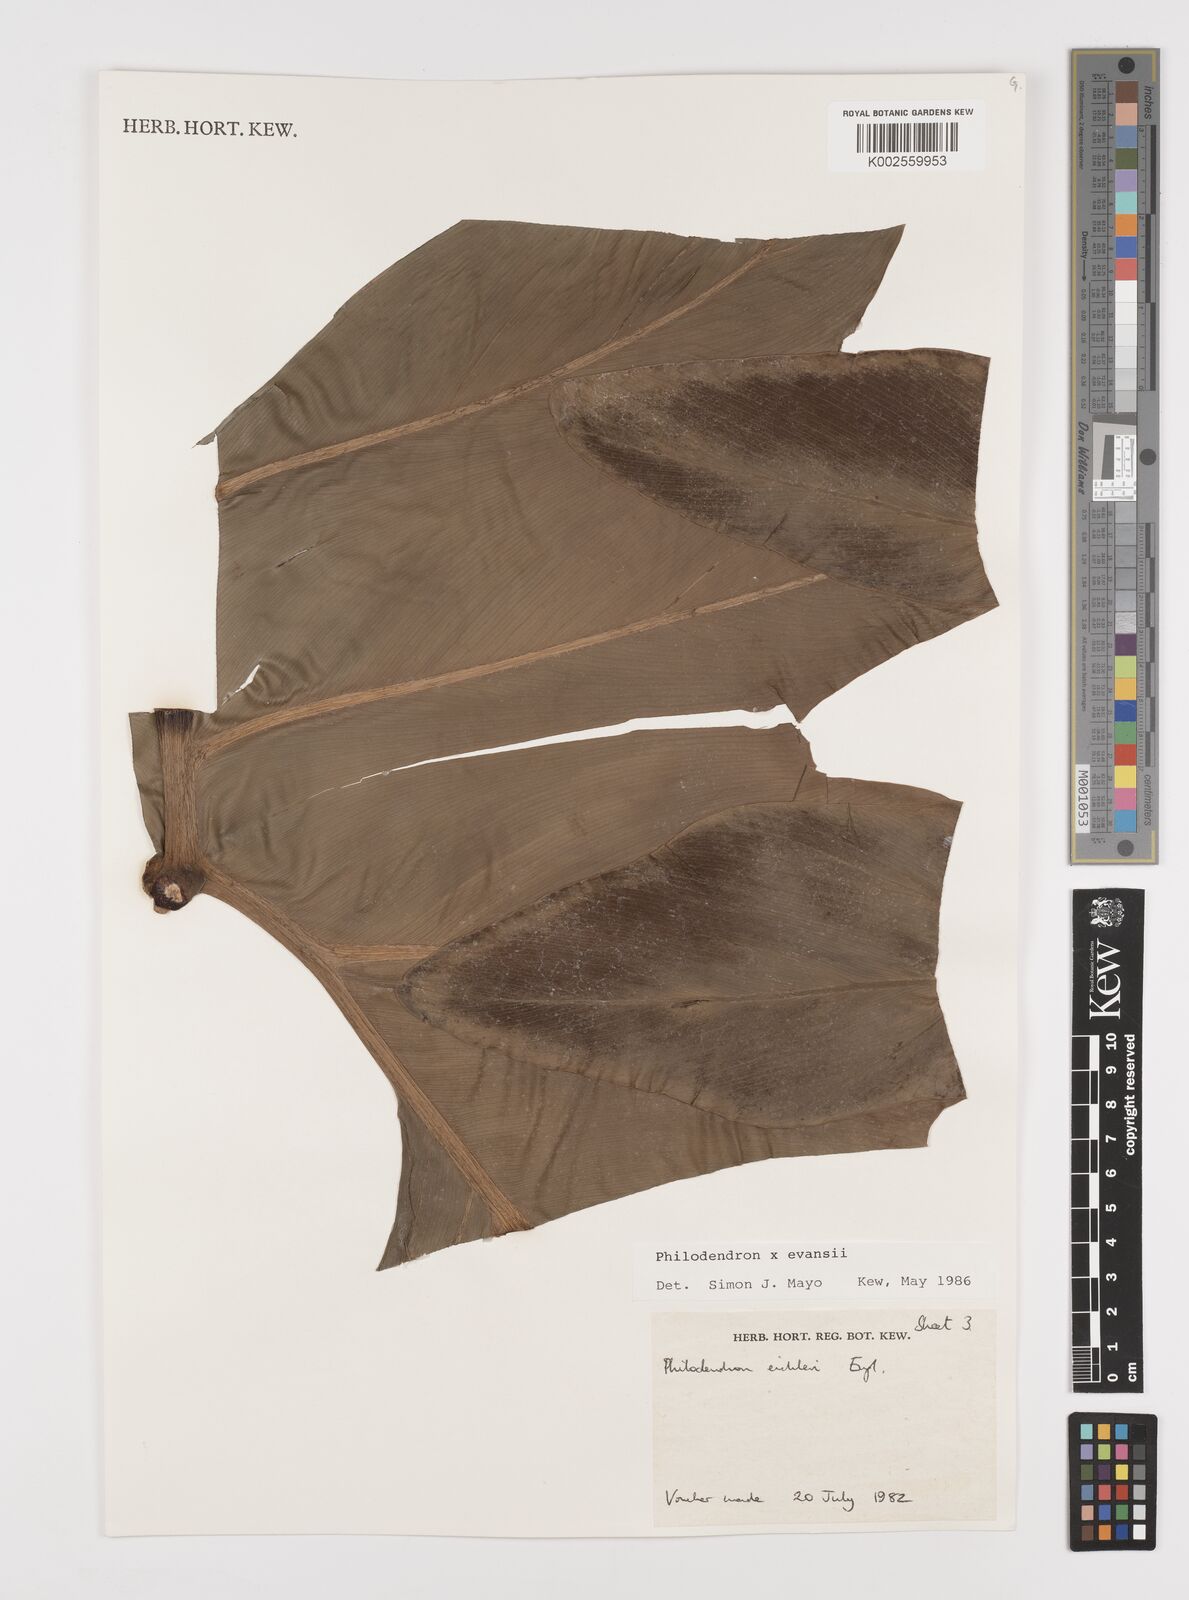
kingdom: Plantae
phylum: Tracheophyta
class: Liliopsida
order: Alismatales
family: Araceae
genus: Philodendron
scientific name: Philodendron
